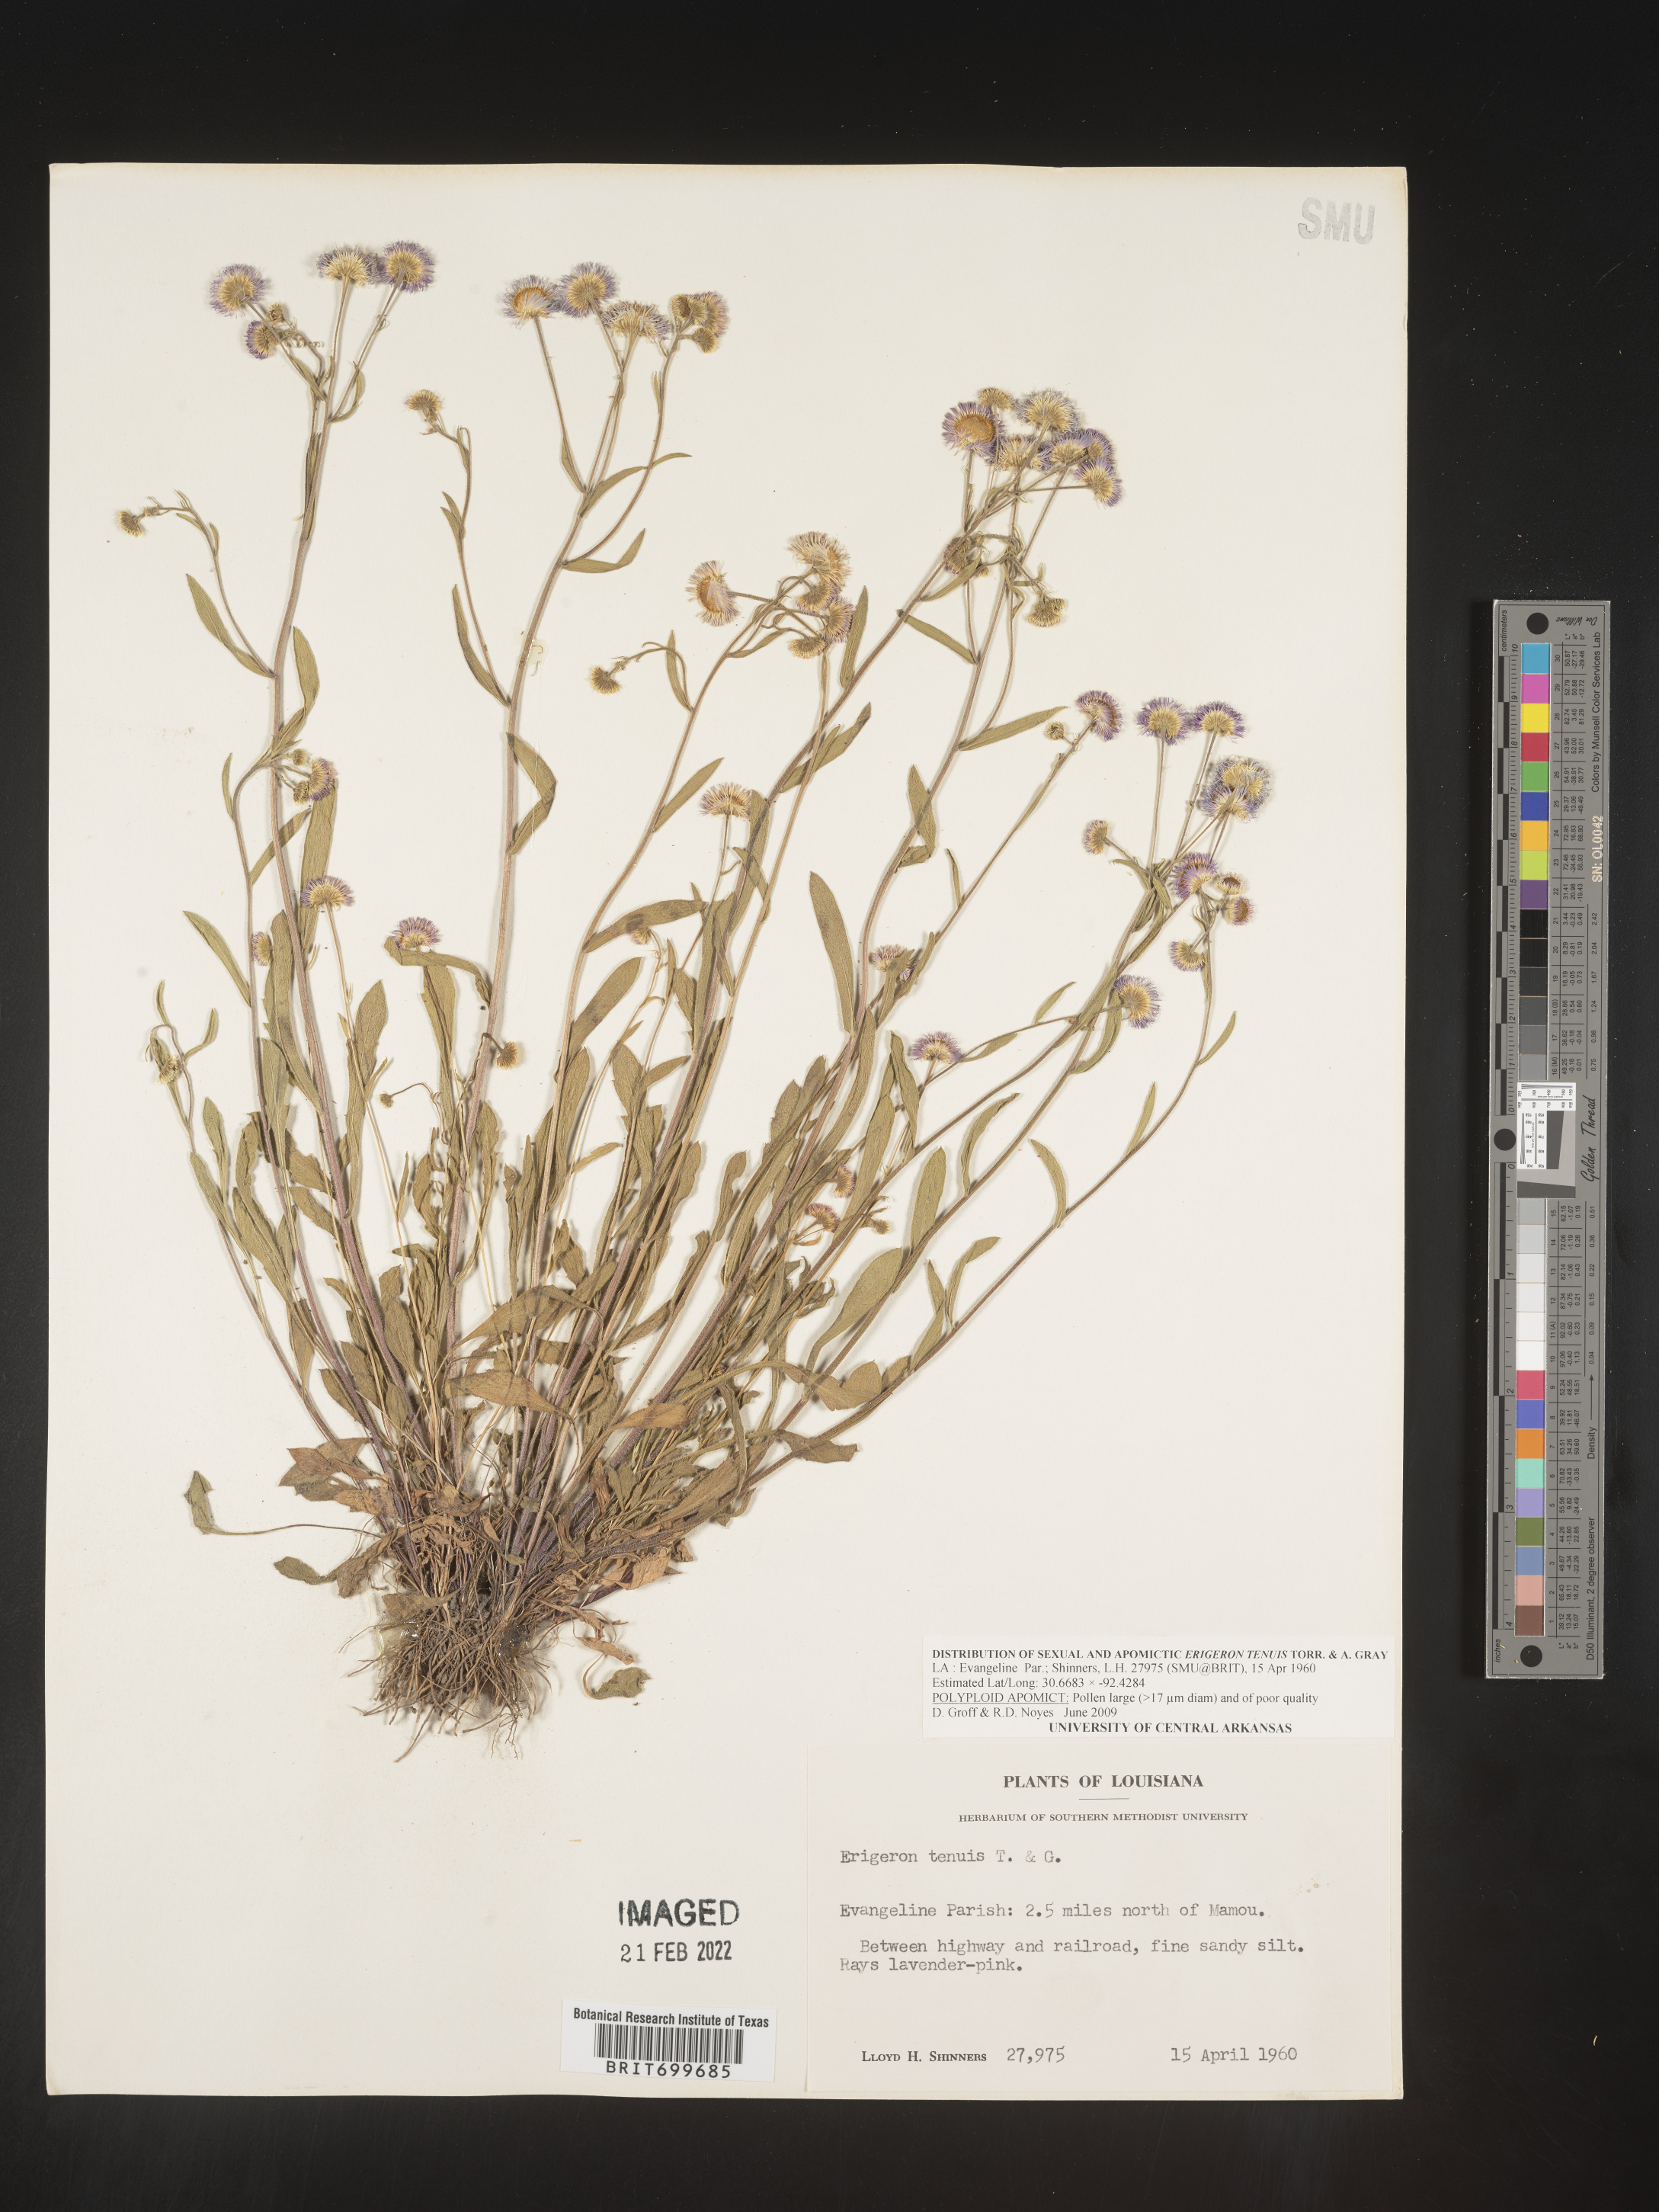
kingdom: Plantae
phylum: Tracheophyta
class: Magnoliopsida
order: Asterales
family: Asteraceae
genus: Erigeron
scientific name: Erigeron tenuis
